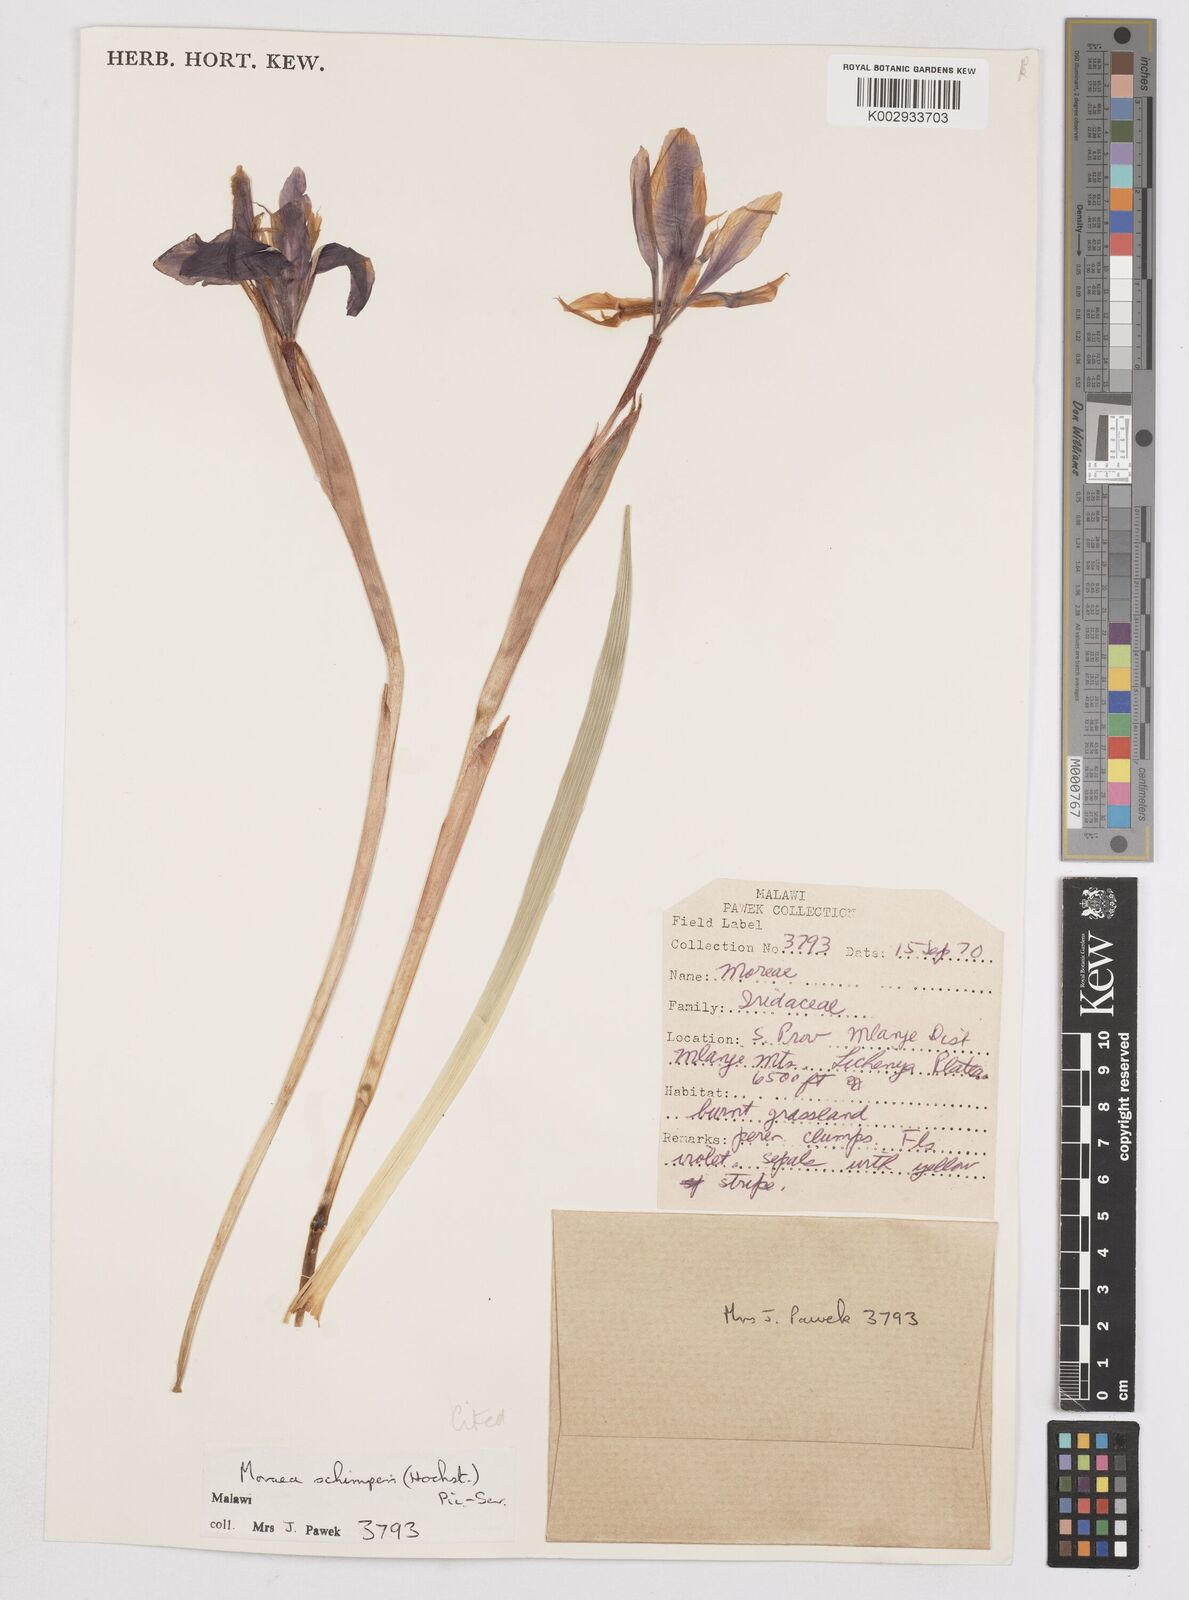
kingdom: Plantae
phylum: Tracheophyta
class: Liliopsida
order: Asparagales
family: Iridaceae
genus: Moraea
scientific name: Moraea schimperi
